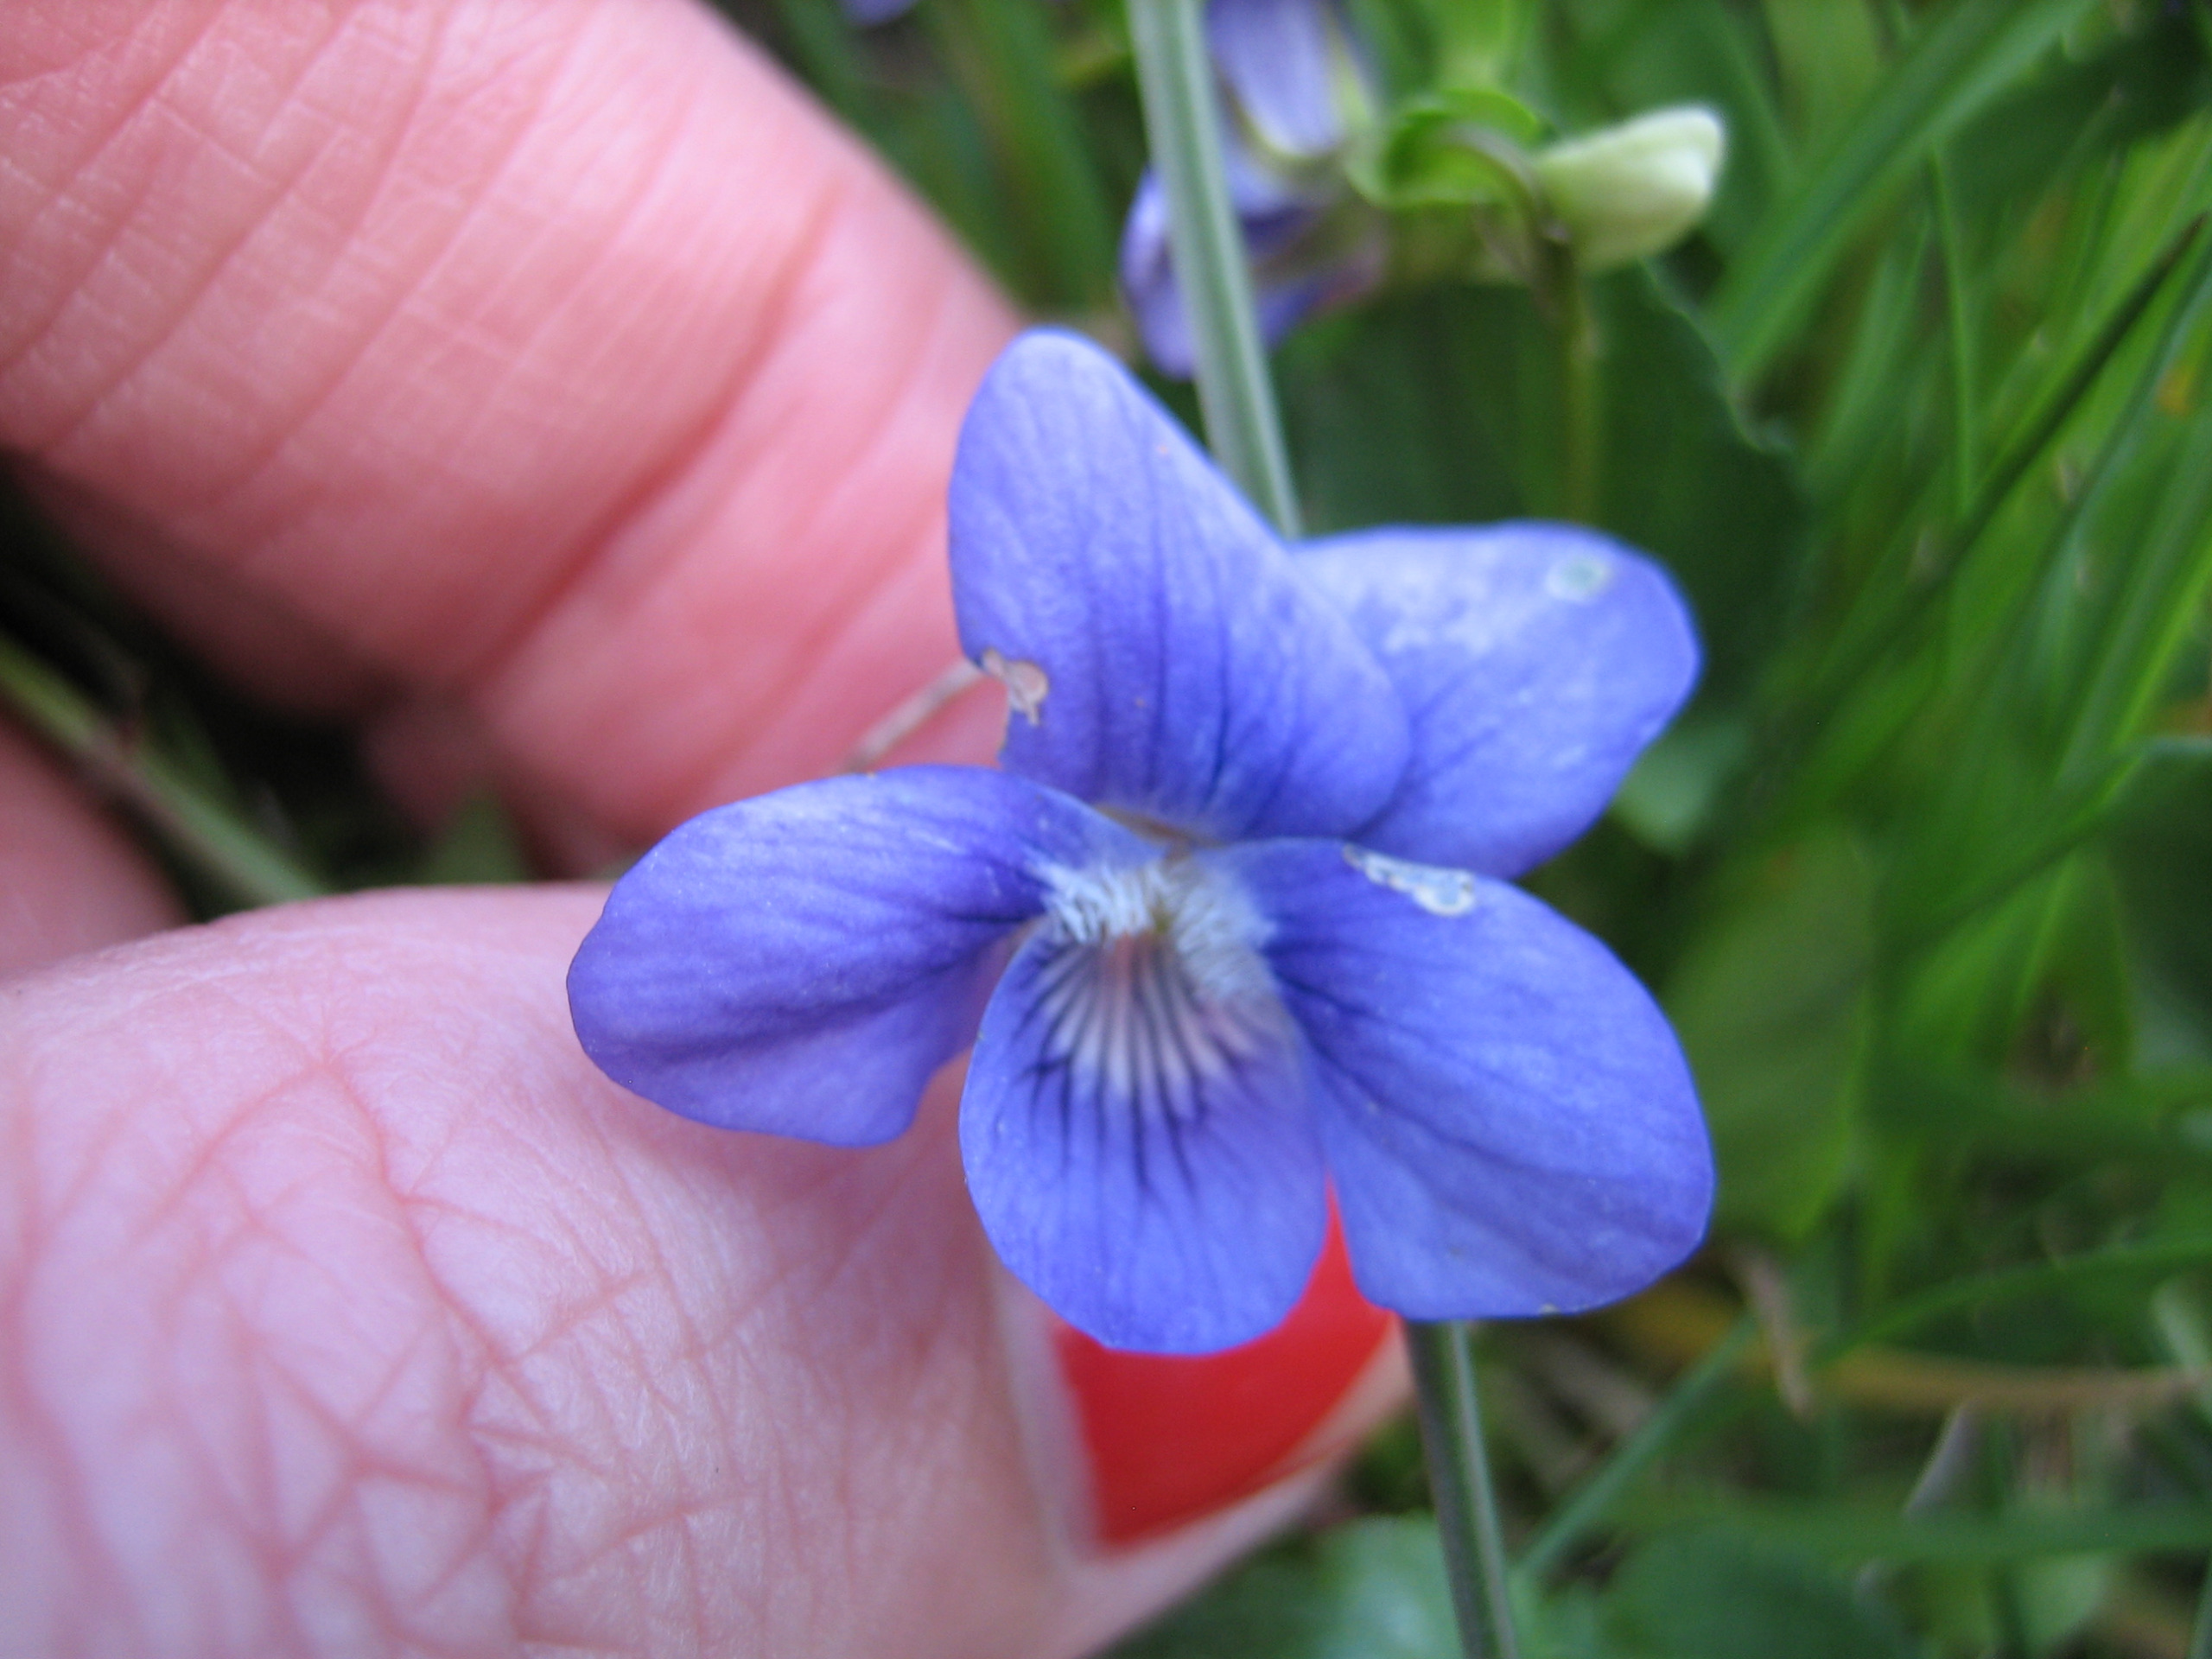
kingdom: Plantae
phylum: Tracheophyta
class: Magnoliopsida
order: Malpighiales
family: Violaceae
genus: Viola
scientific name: Viola canina
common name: Hunde-viol
